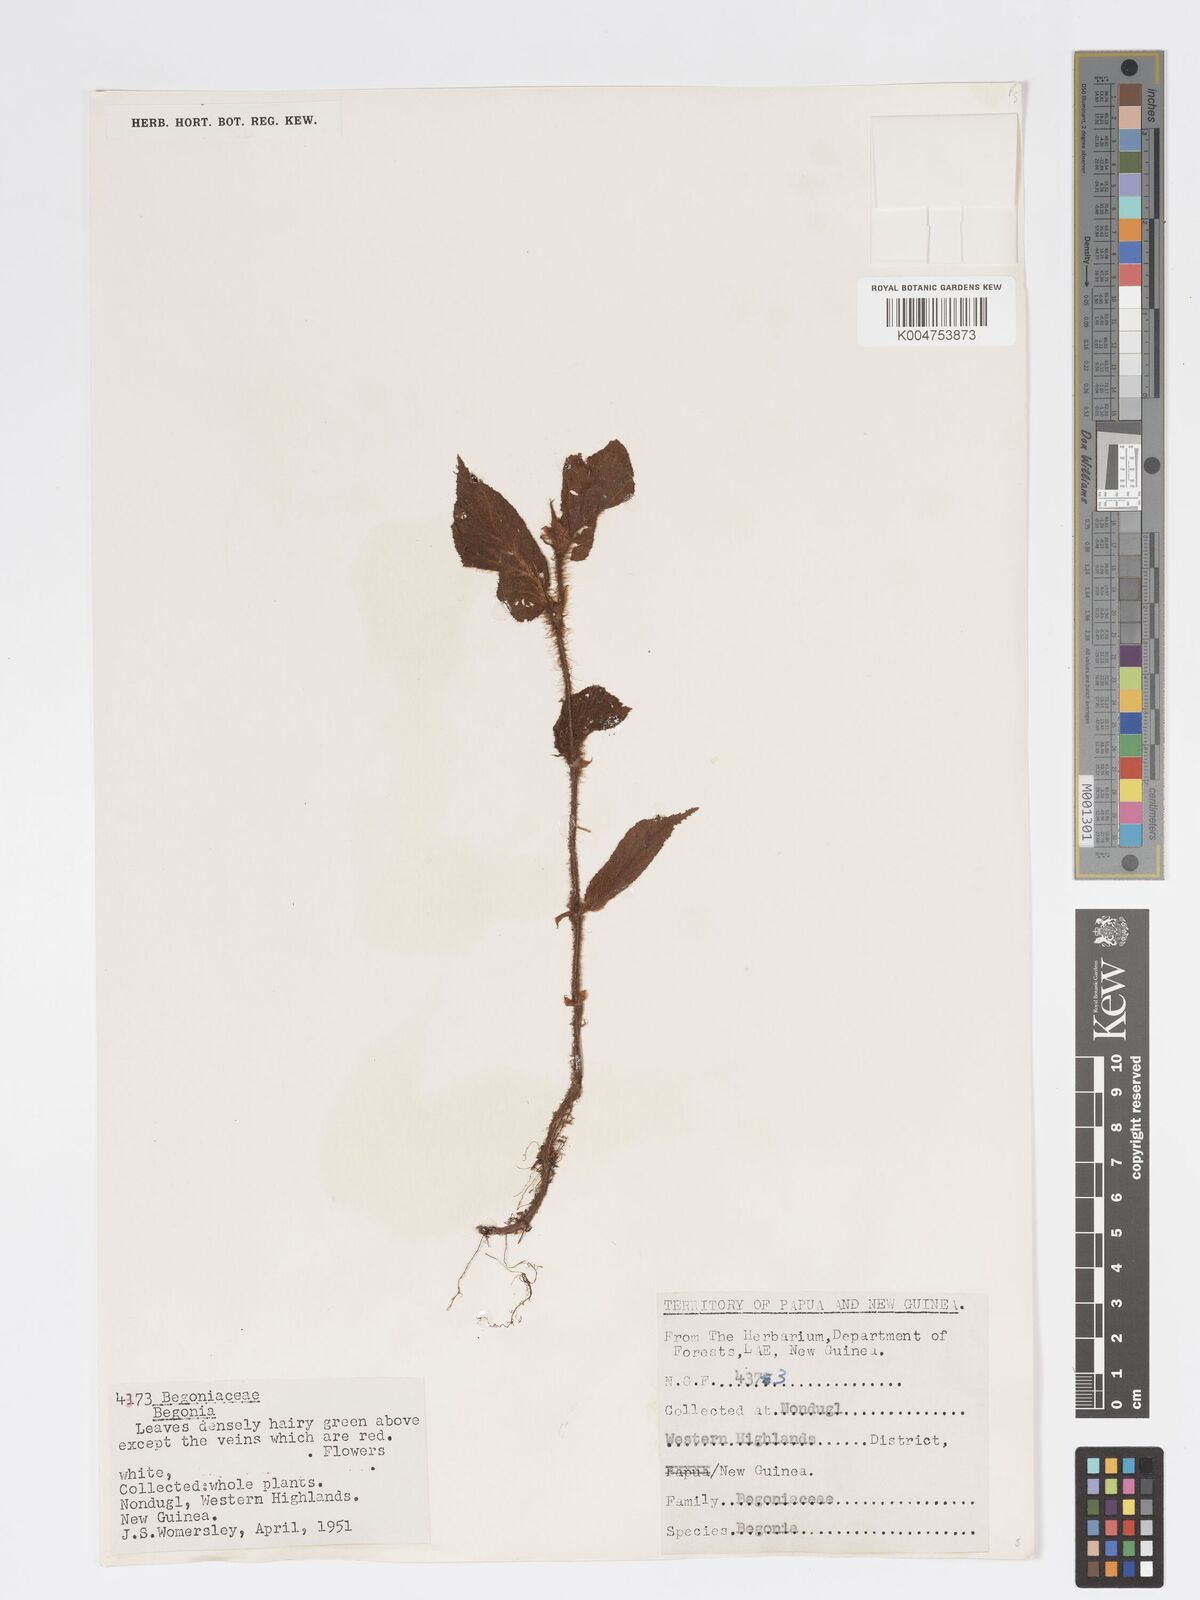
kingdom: Plantae
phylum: Tracheophyta
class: Magnoliopsida
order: Cucurbitales
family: Begoniaceae
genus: Begonia
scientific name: Begonia
